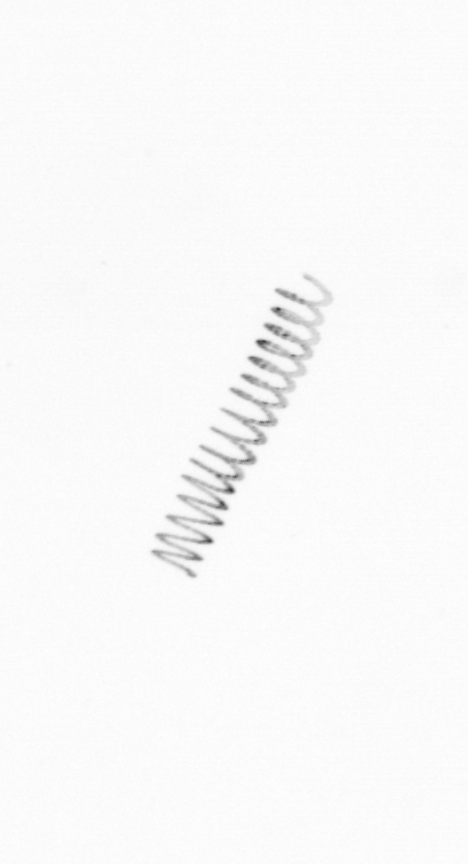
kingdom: Chromista
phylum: Ochrophyta
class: Bacillariophyceae
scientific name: Bacillariophyceae
